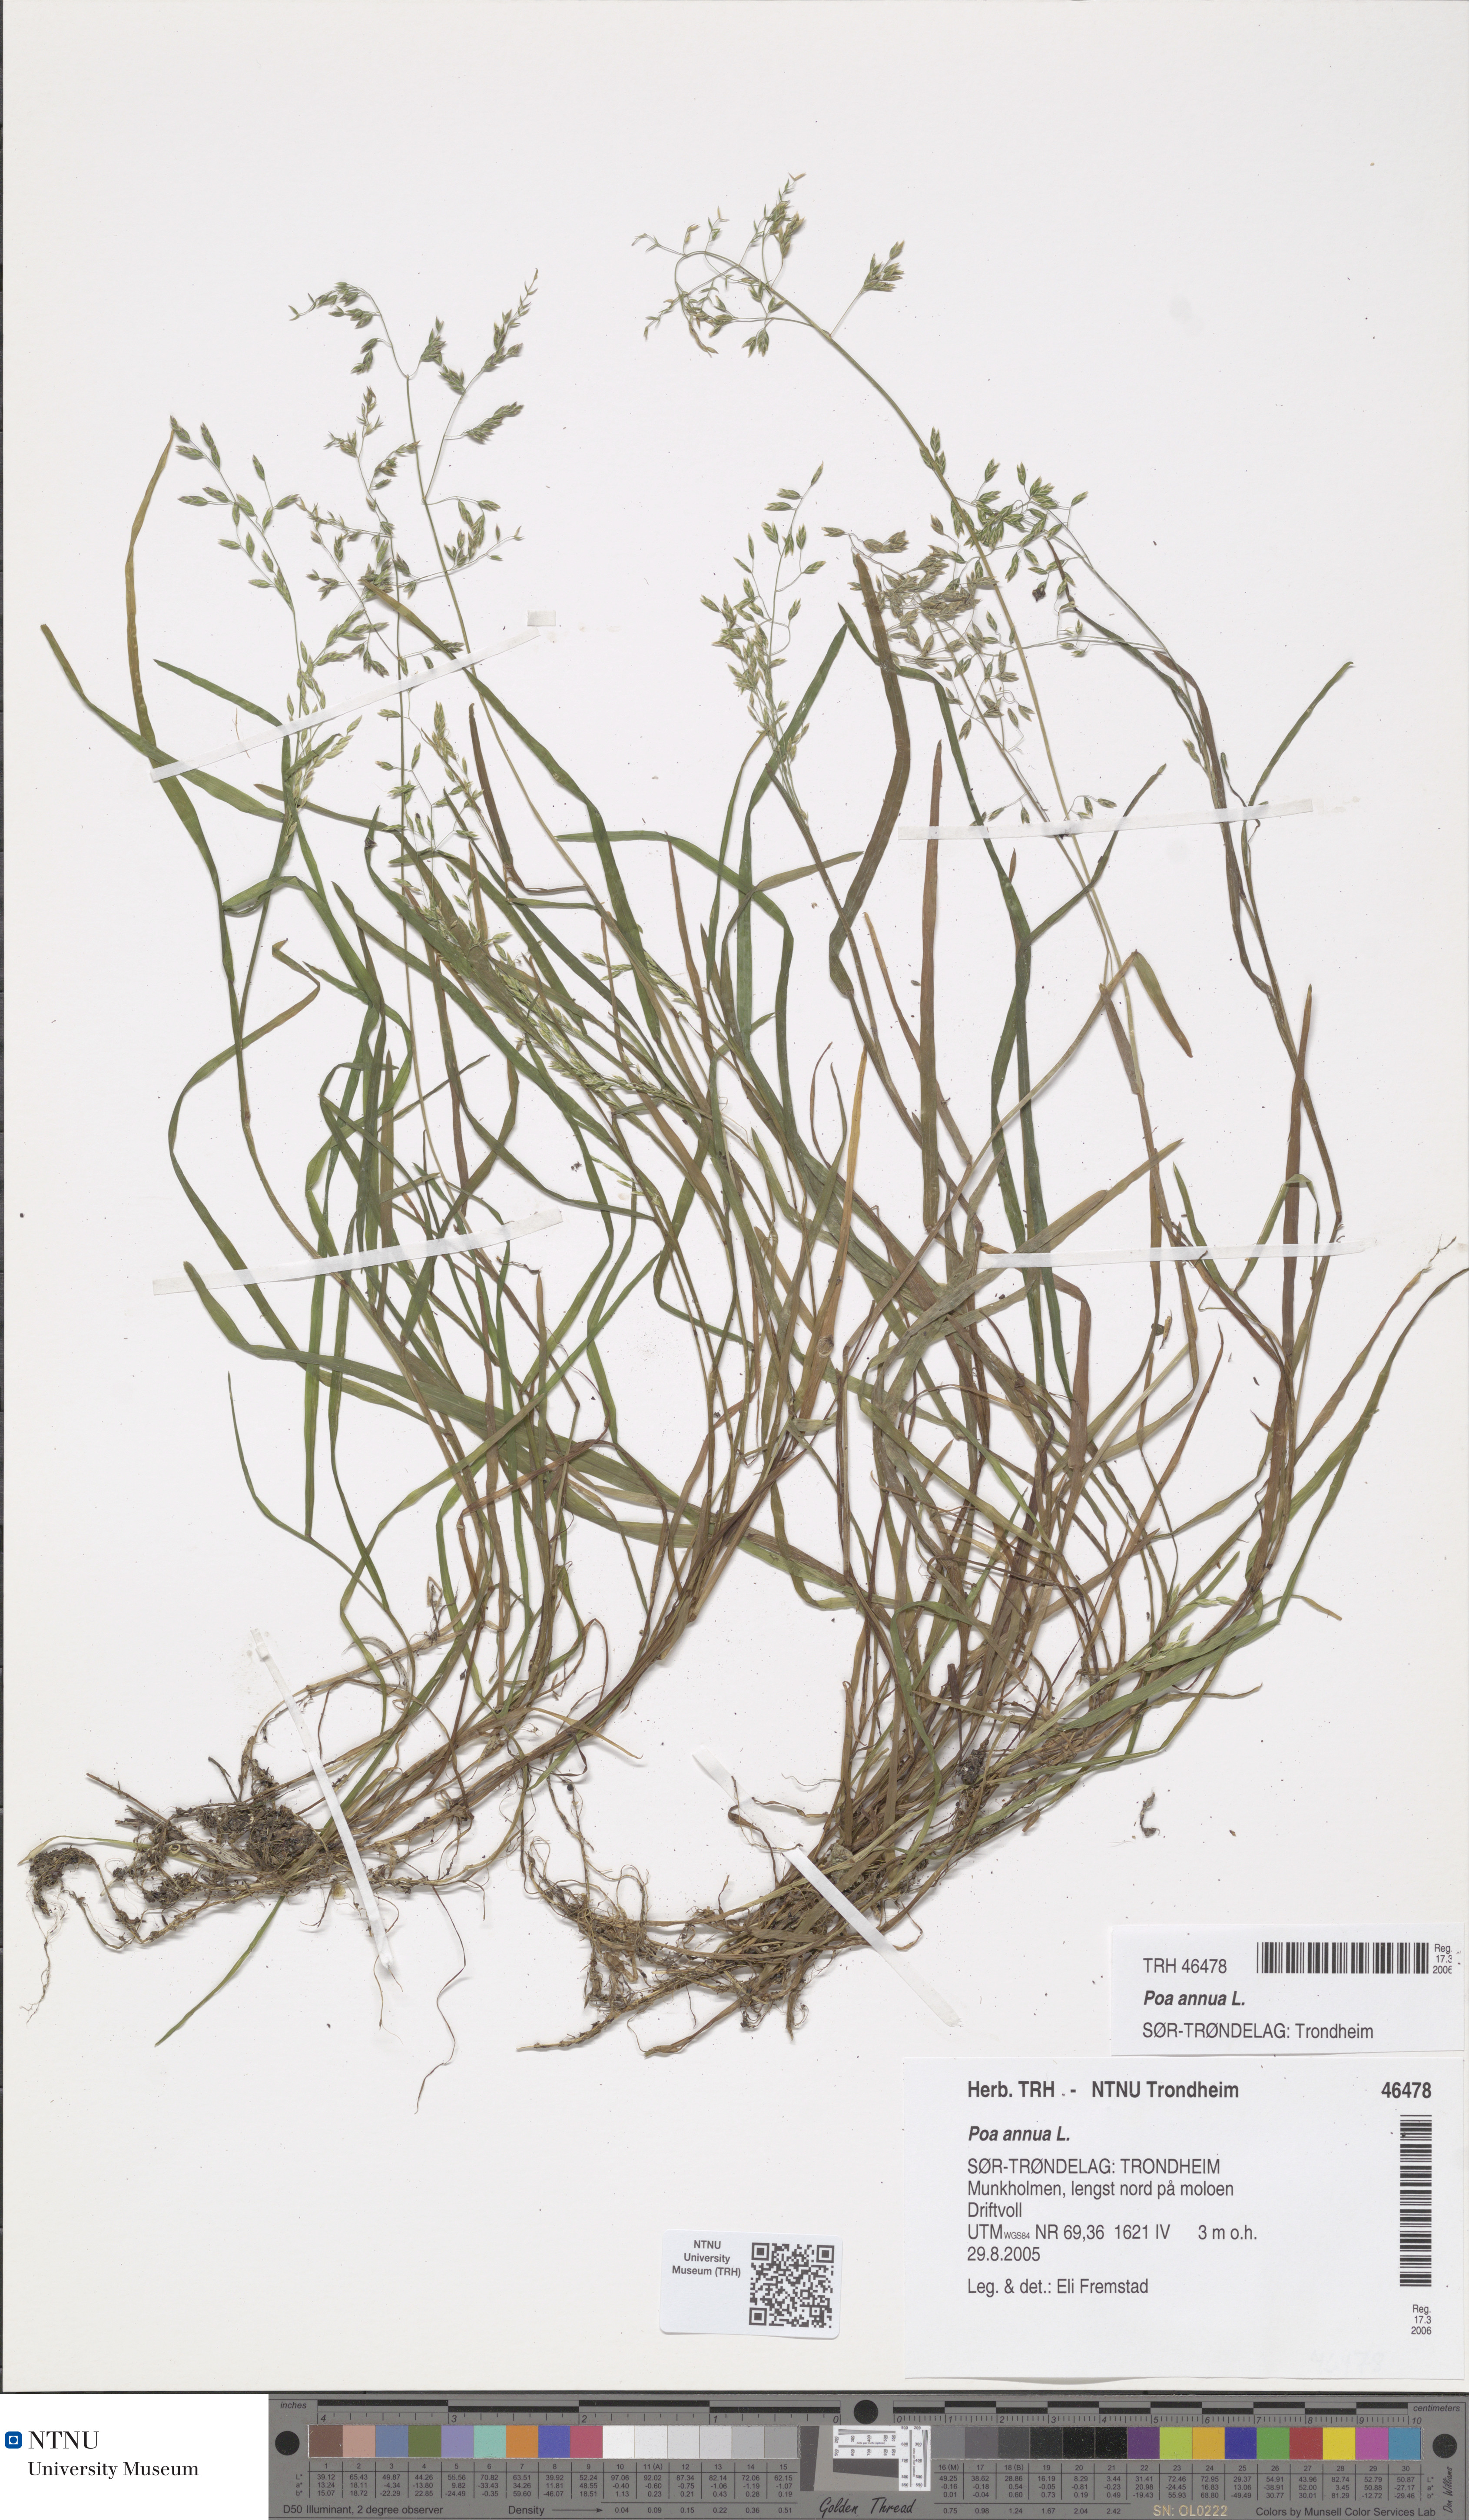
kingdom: Plantae
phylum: Tracheophyta
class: Liliopsida
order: Poales
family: Poaceae
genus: Poa
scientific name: Poa annua
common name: Annual bluegrass
